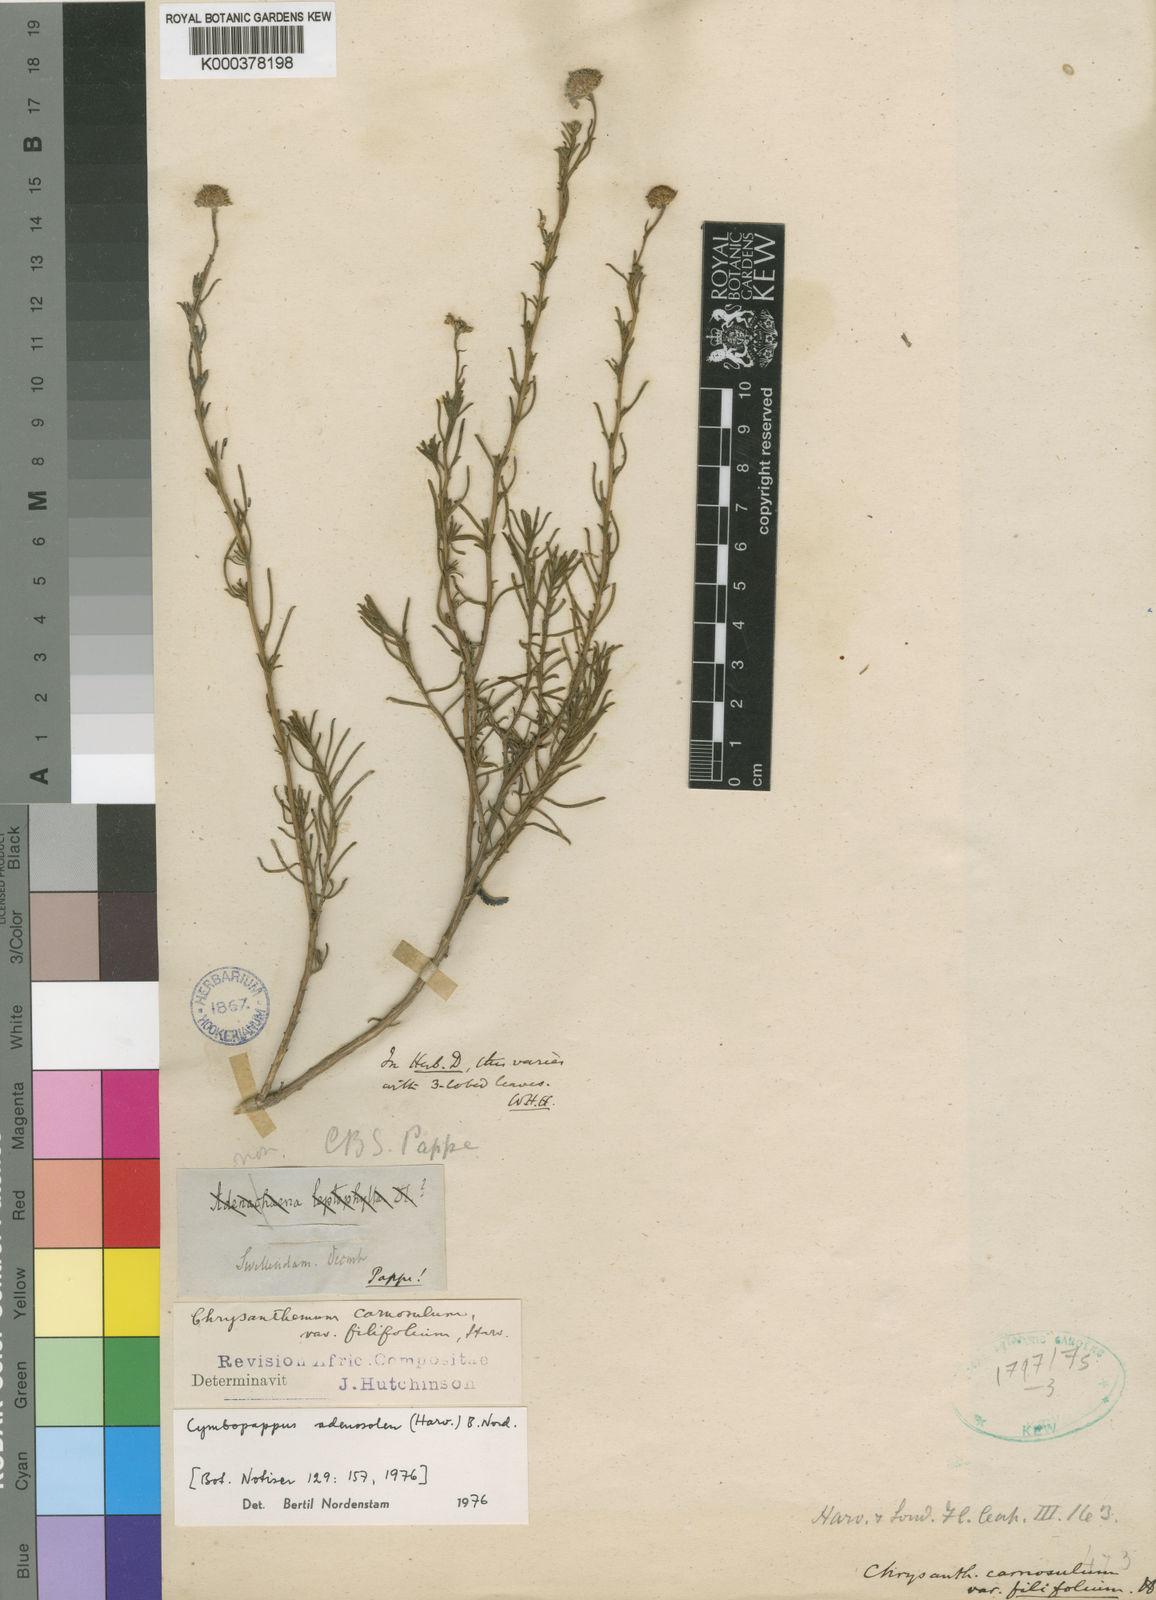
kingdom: Plantae
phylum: Tracheophyta
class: Magnoliopsida
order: Asterales
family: Asteraceae
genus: Cymbopappus
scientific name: Cymbopappus adenosolen
